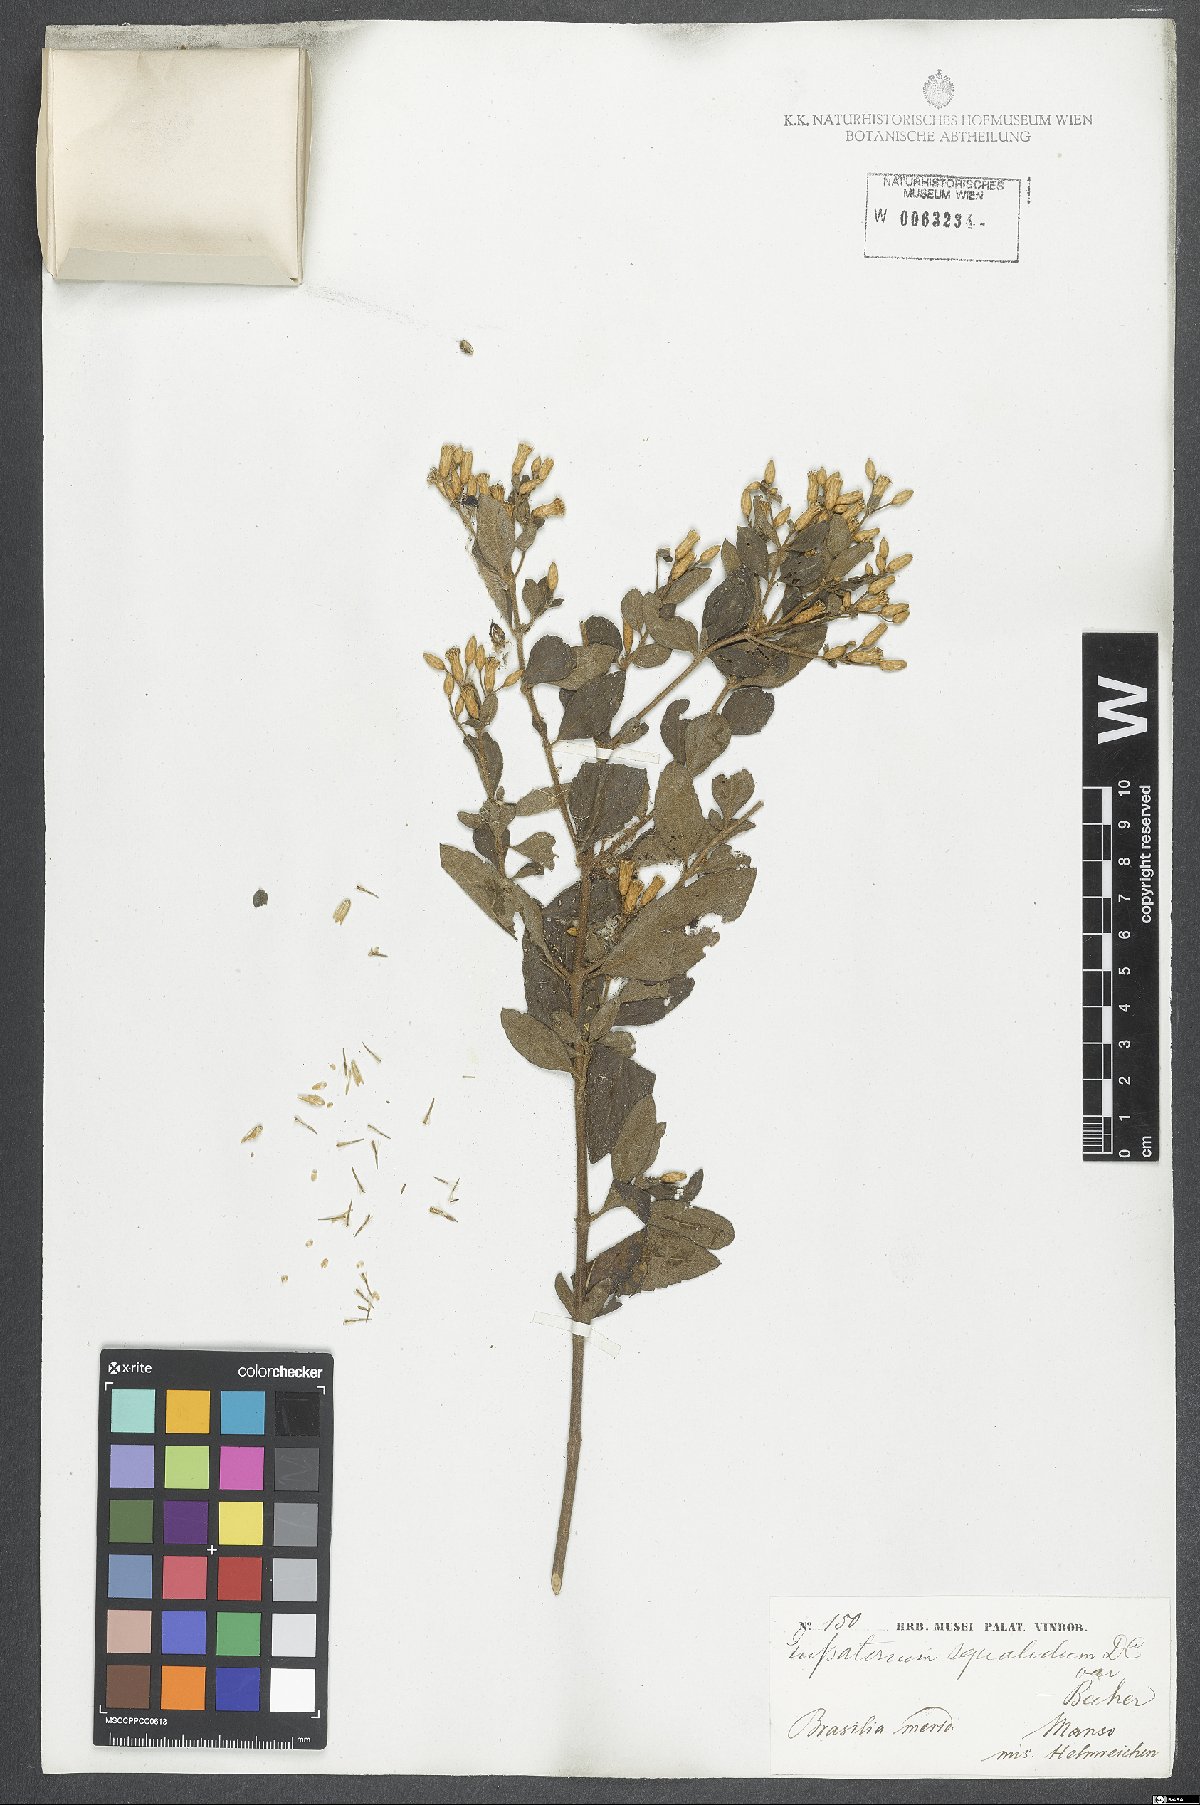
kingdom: Plantae
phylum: Tracheophyta
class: Magnoliopsida
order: Asterales
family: Asteraceae
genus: Chromolaena
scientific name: Chromolaena squalida
